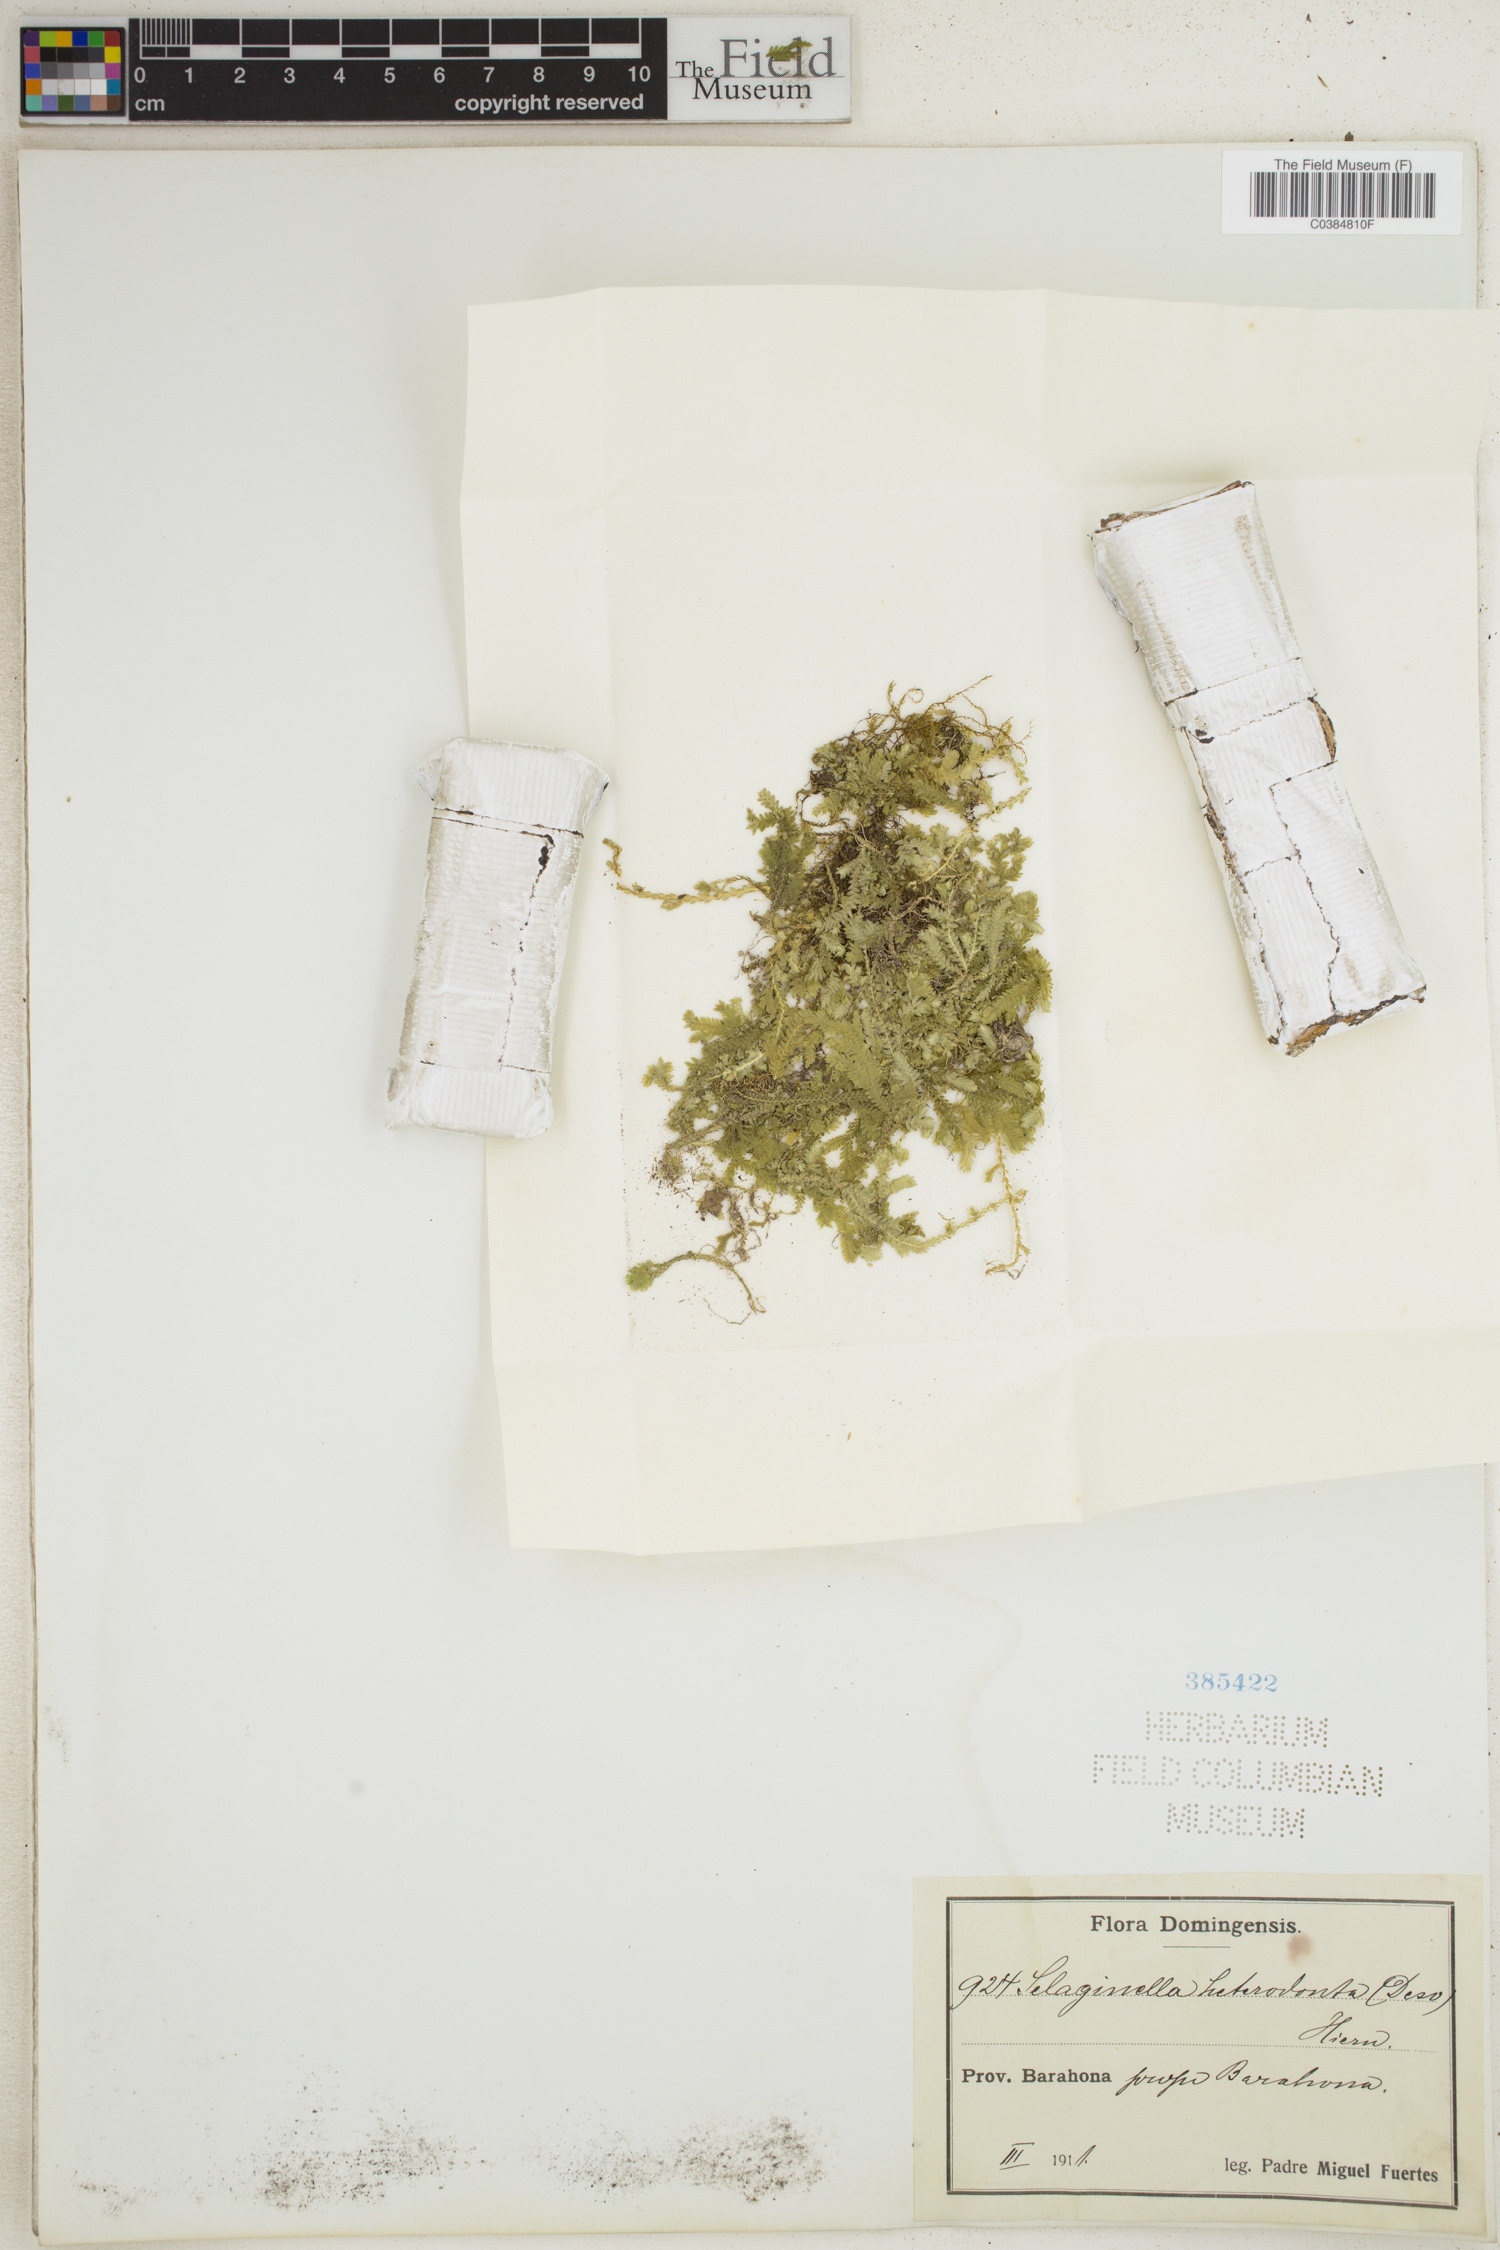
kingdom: Plantae
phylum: Tracheophyta
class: Lycopodiopsida
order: Selaginellales
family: Selaginellaceae
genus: Selaginella
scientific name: Selaginella heterodonta
